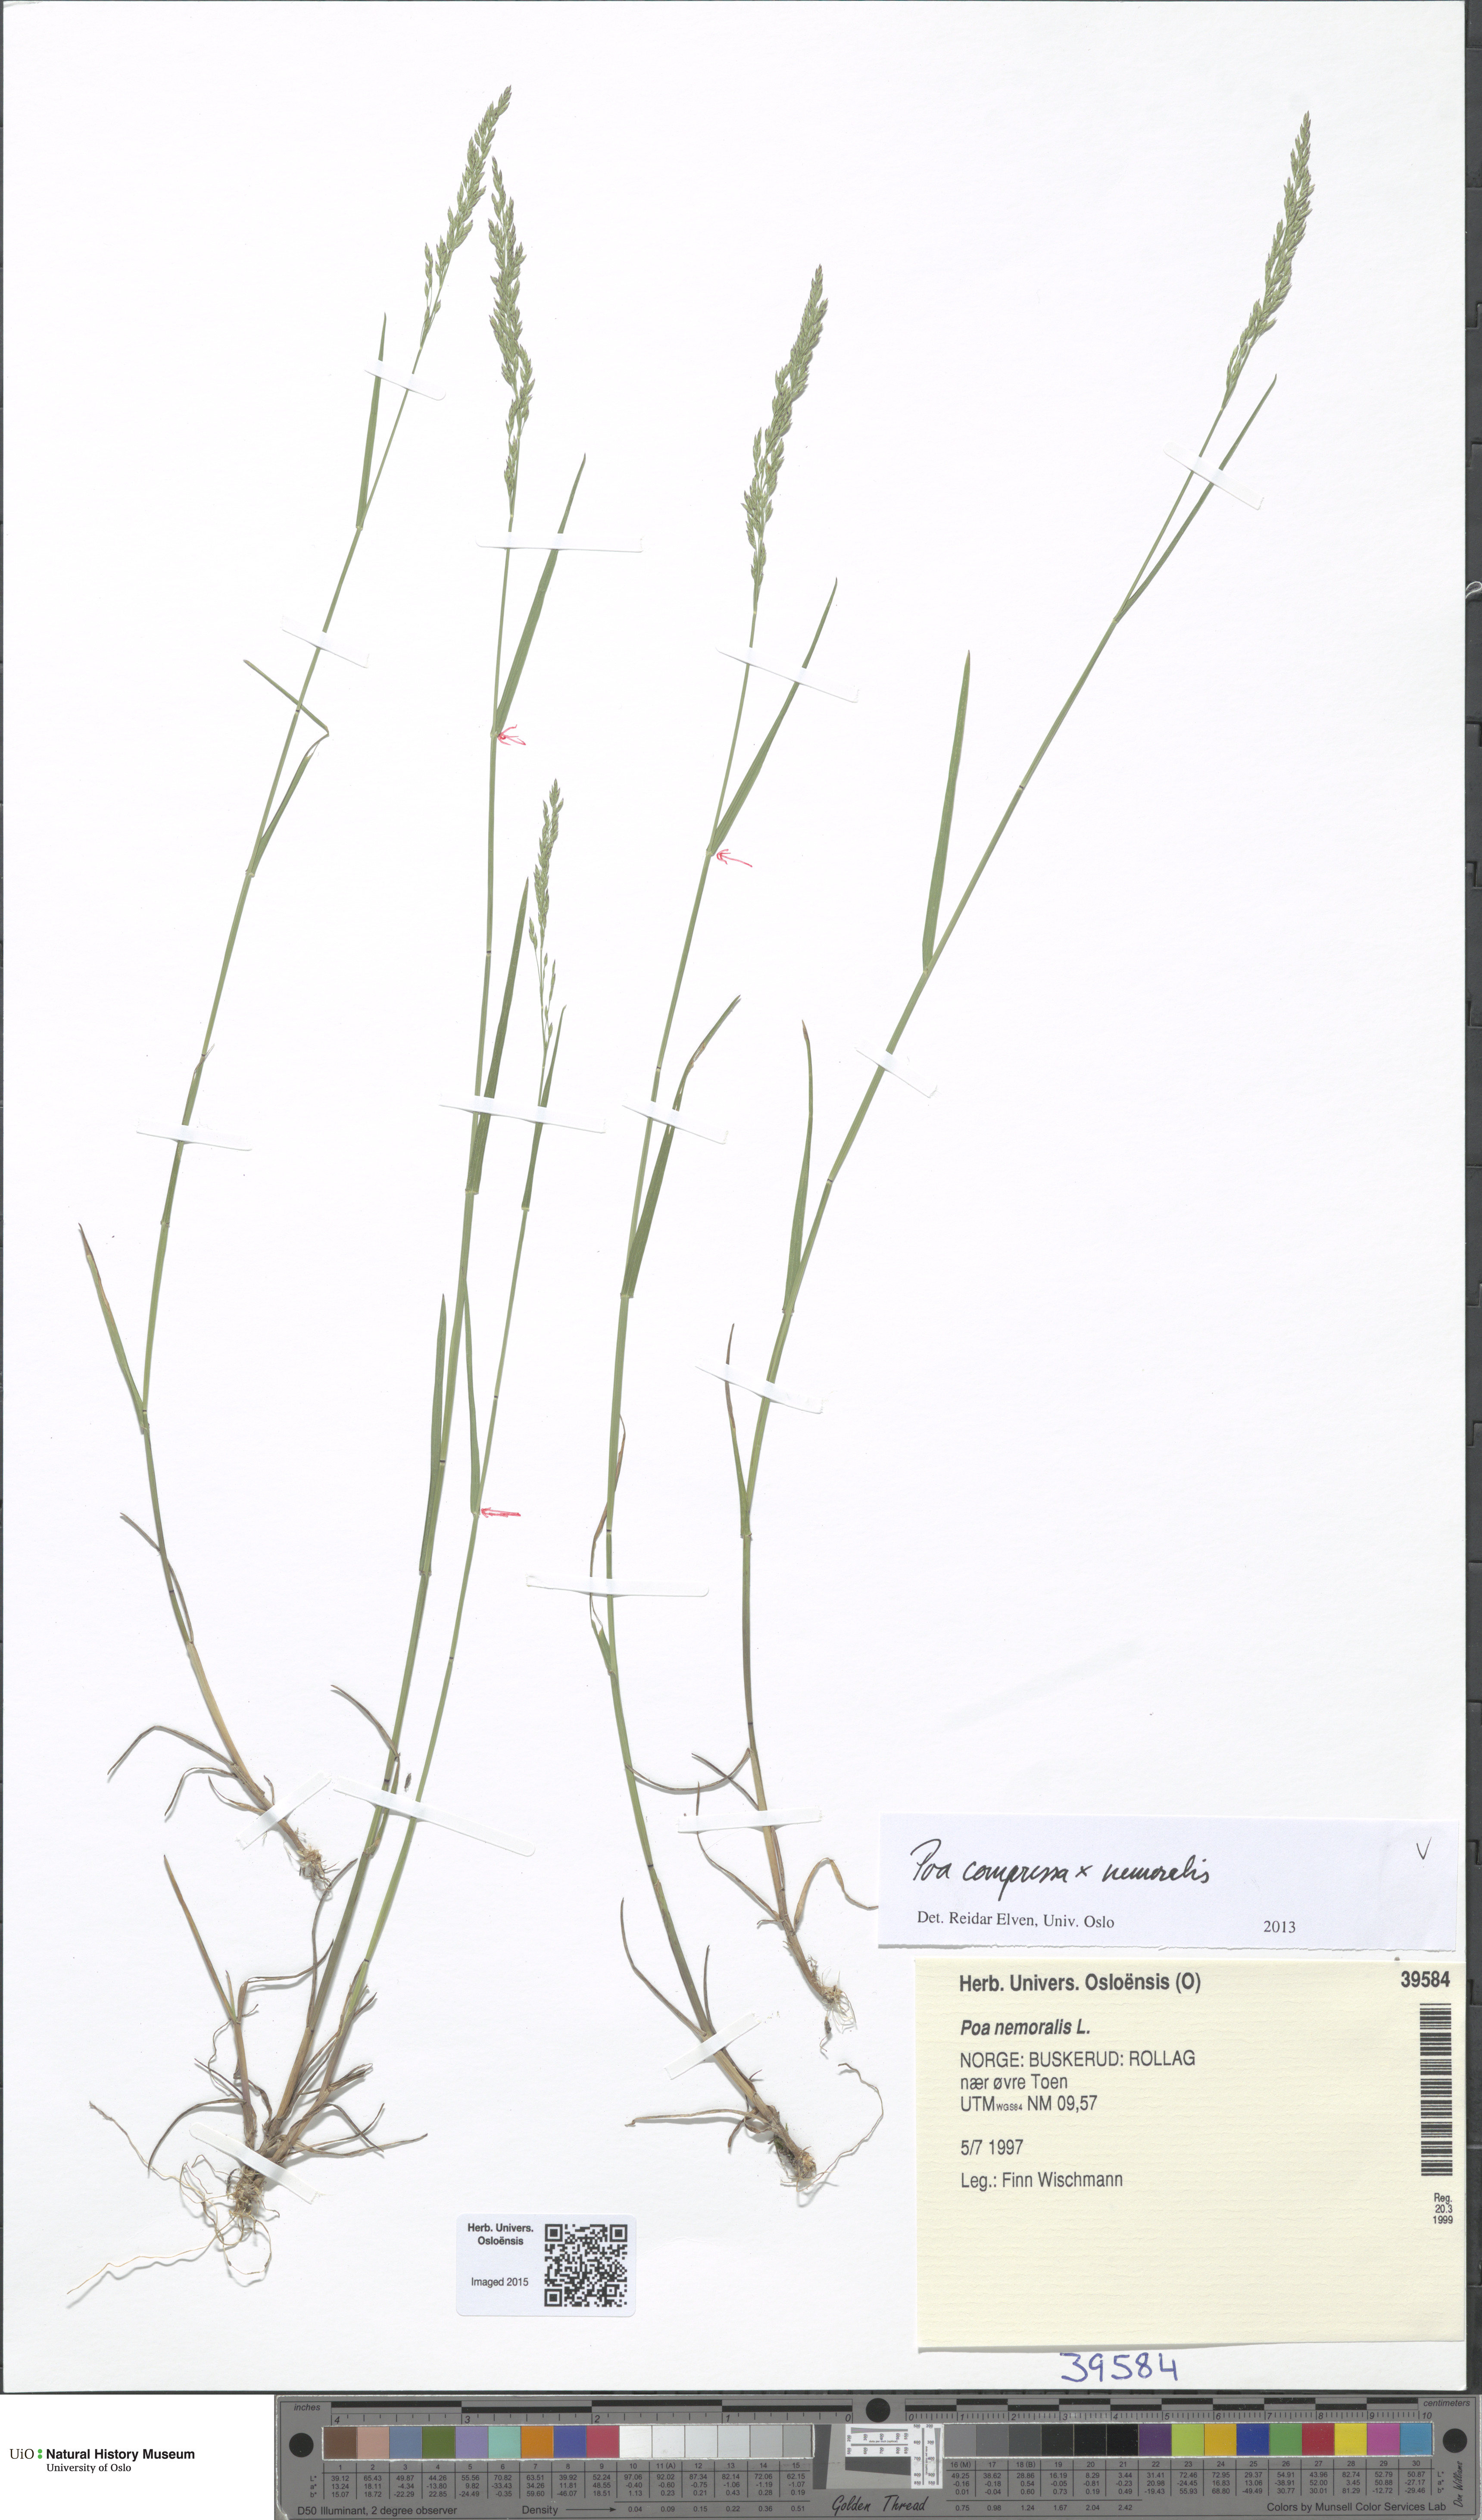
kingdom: Plantae
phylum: Tracheophyta
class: Liliopsida
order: Poales
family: Poaceae
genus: Poa
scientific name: Poa
